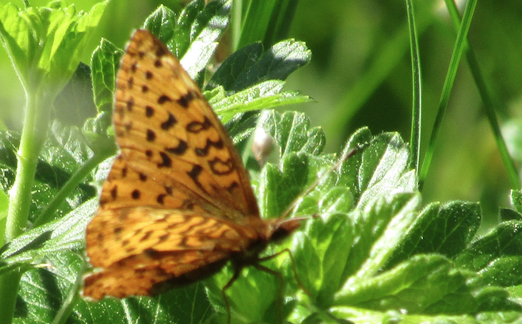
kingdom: Animalia
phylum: Arthropoda
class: Insecta
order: Lepidoptera
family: Nymphalidae
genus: Boloria
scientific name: Boloria
